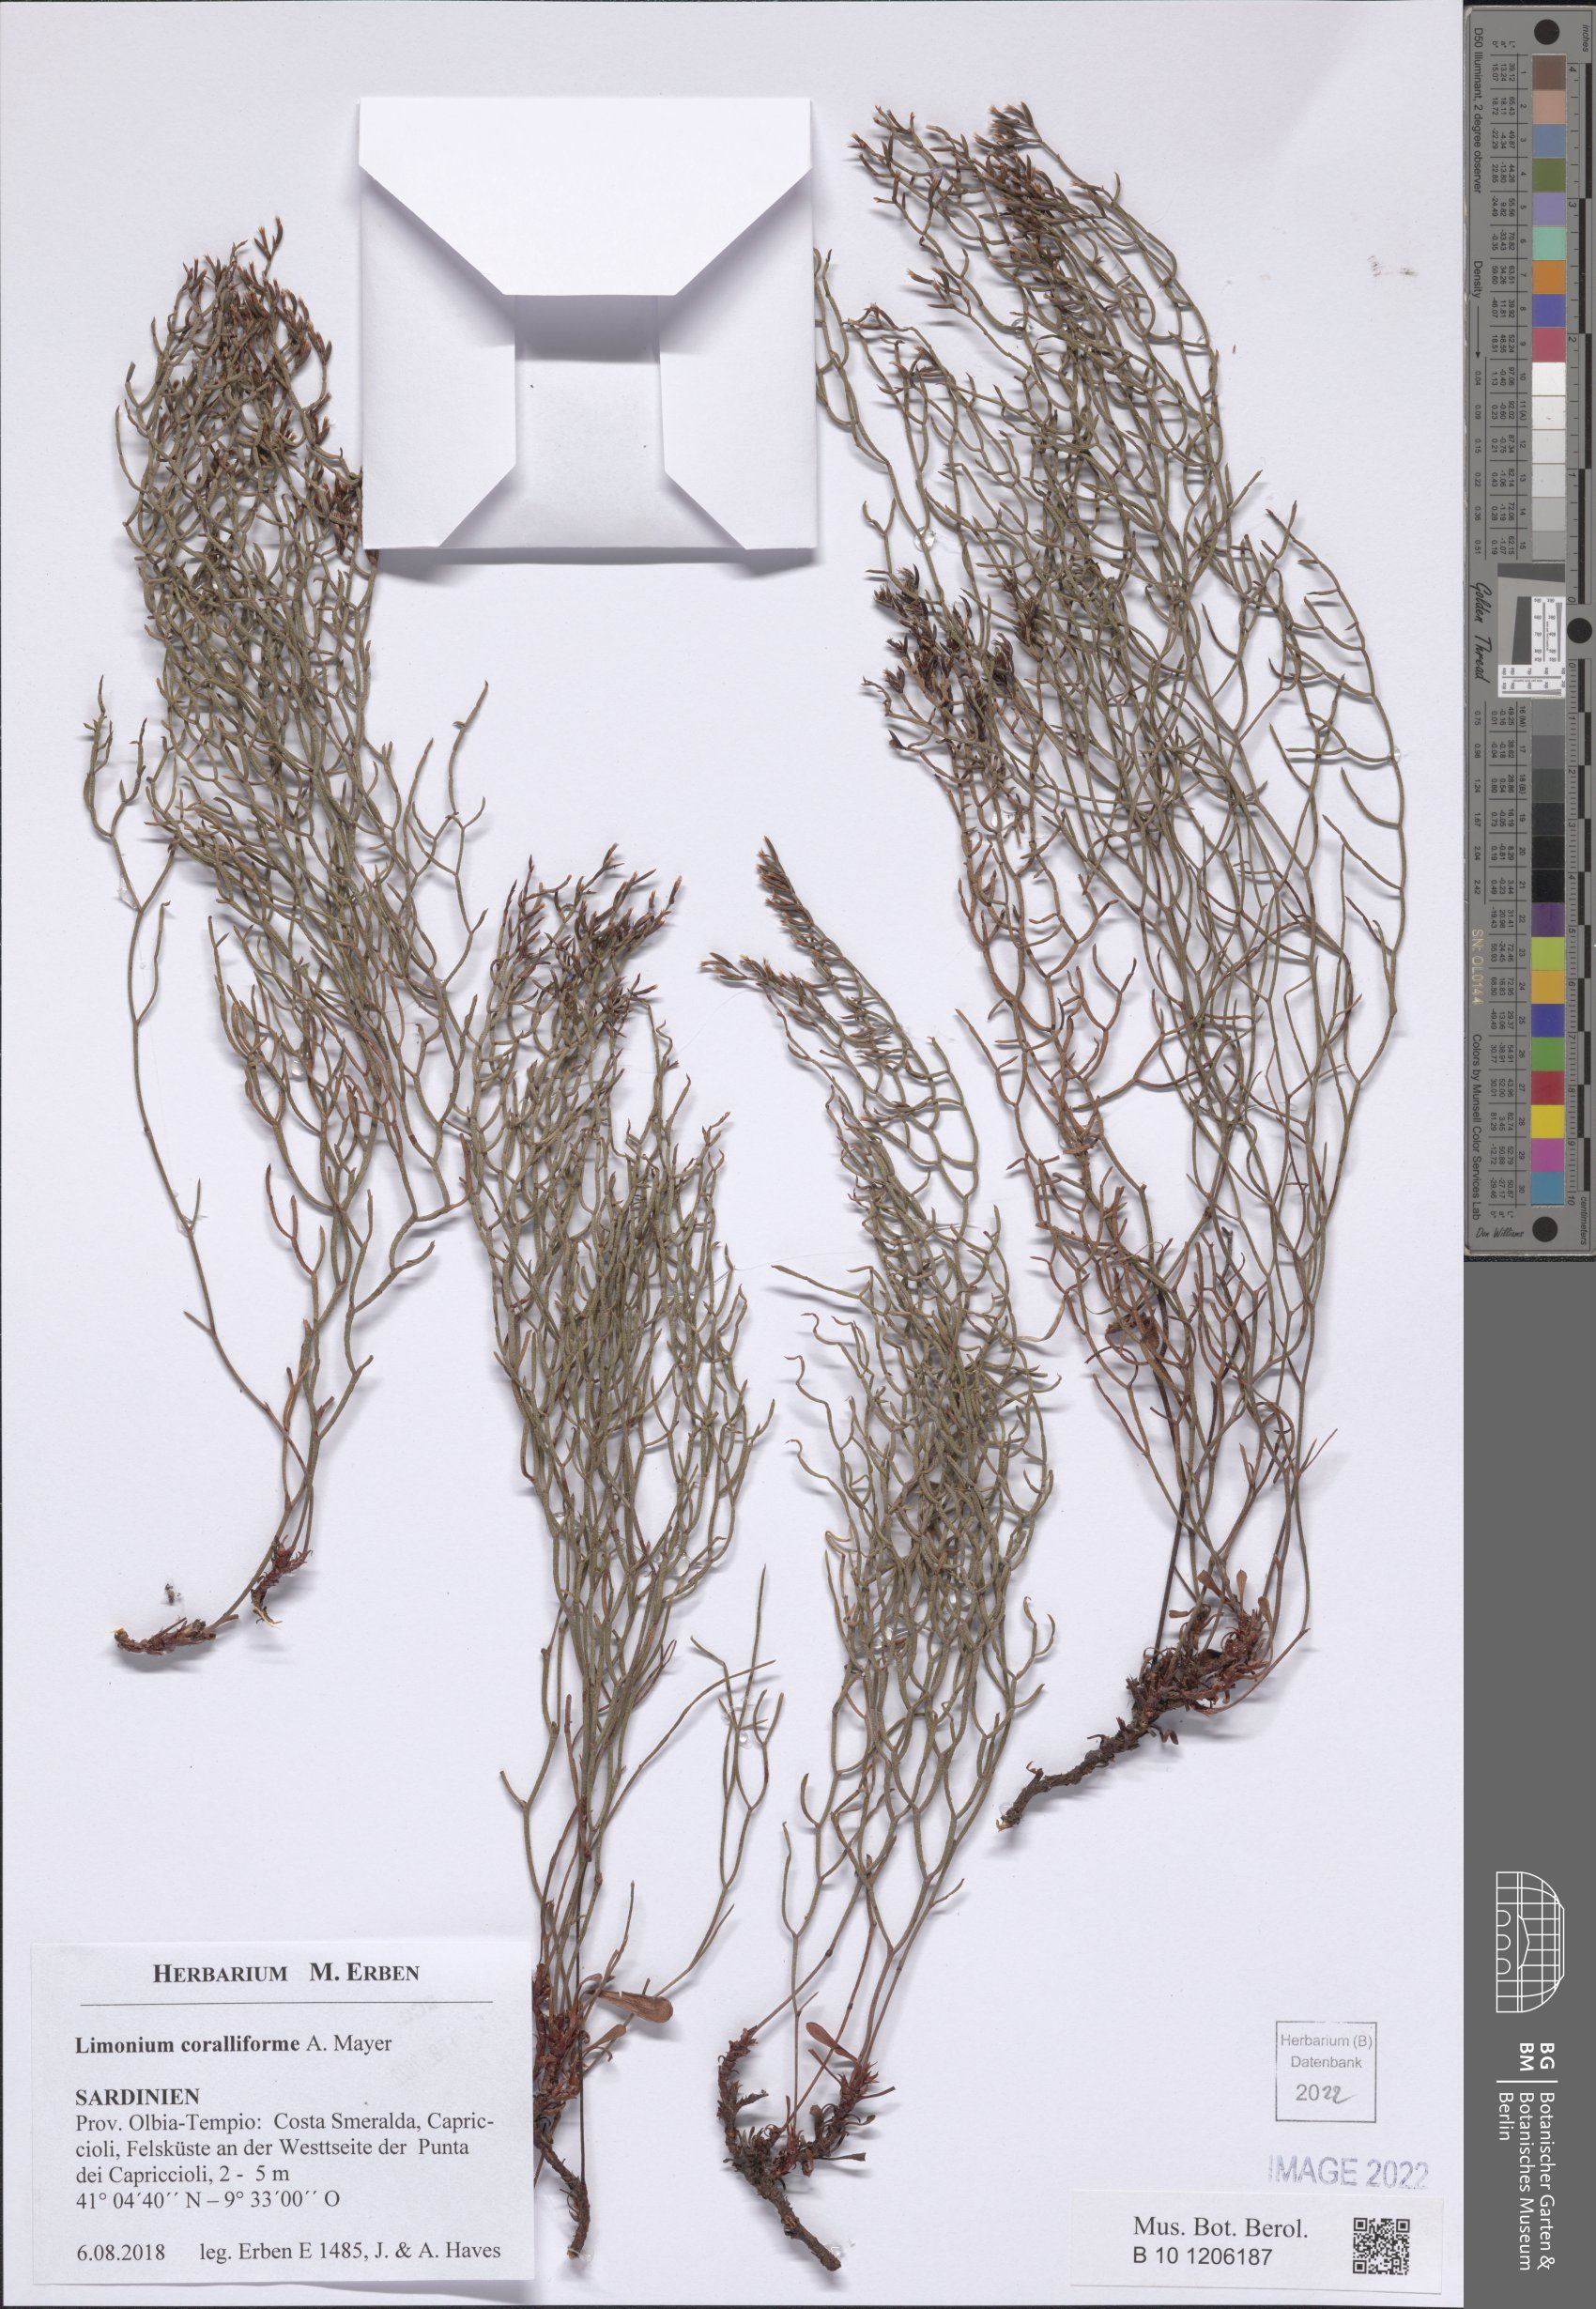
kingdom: Plantae
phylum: Tracheophyta
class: Magnoliopsida
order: Caryophyllales
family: Plumbaginaceae
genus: Limonium
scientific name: Limonium coralliforme
